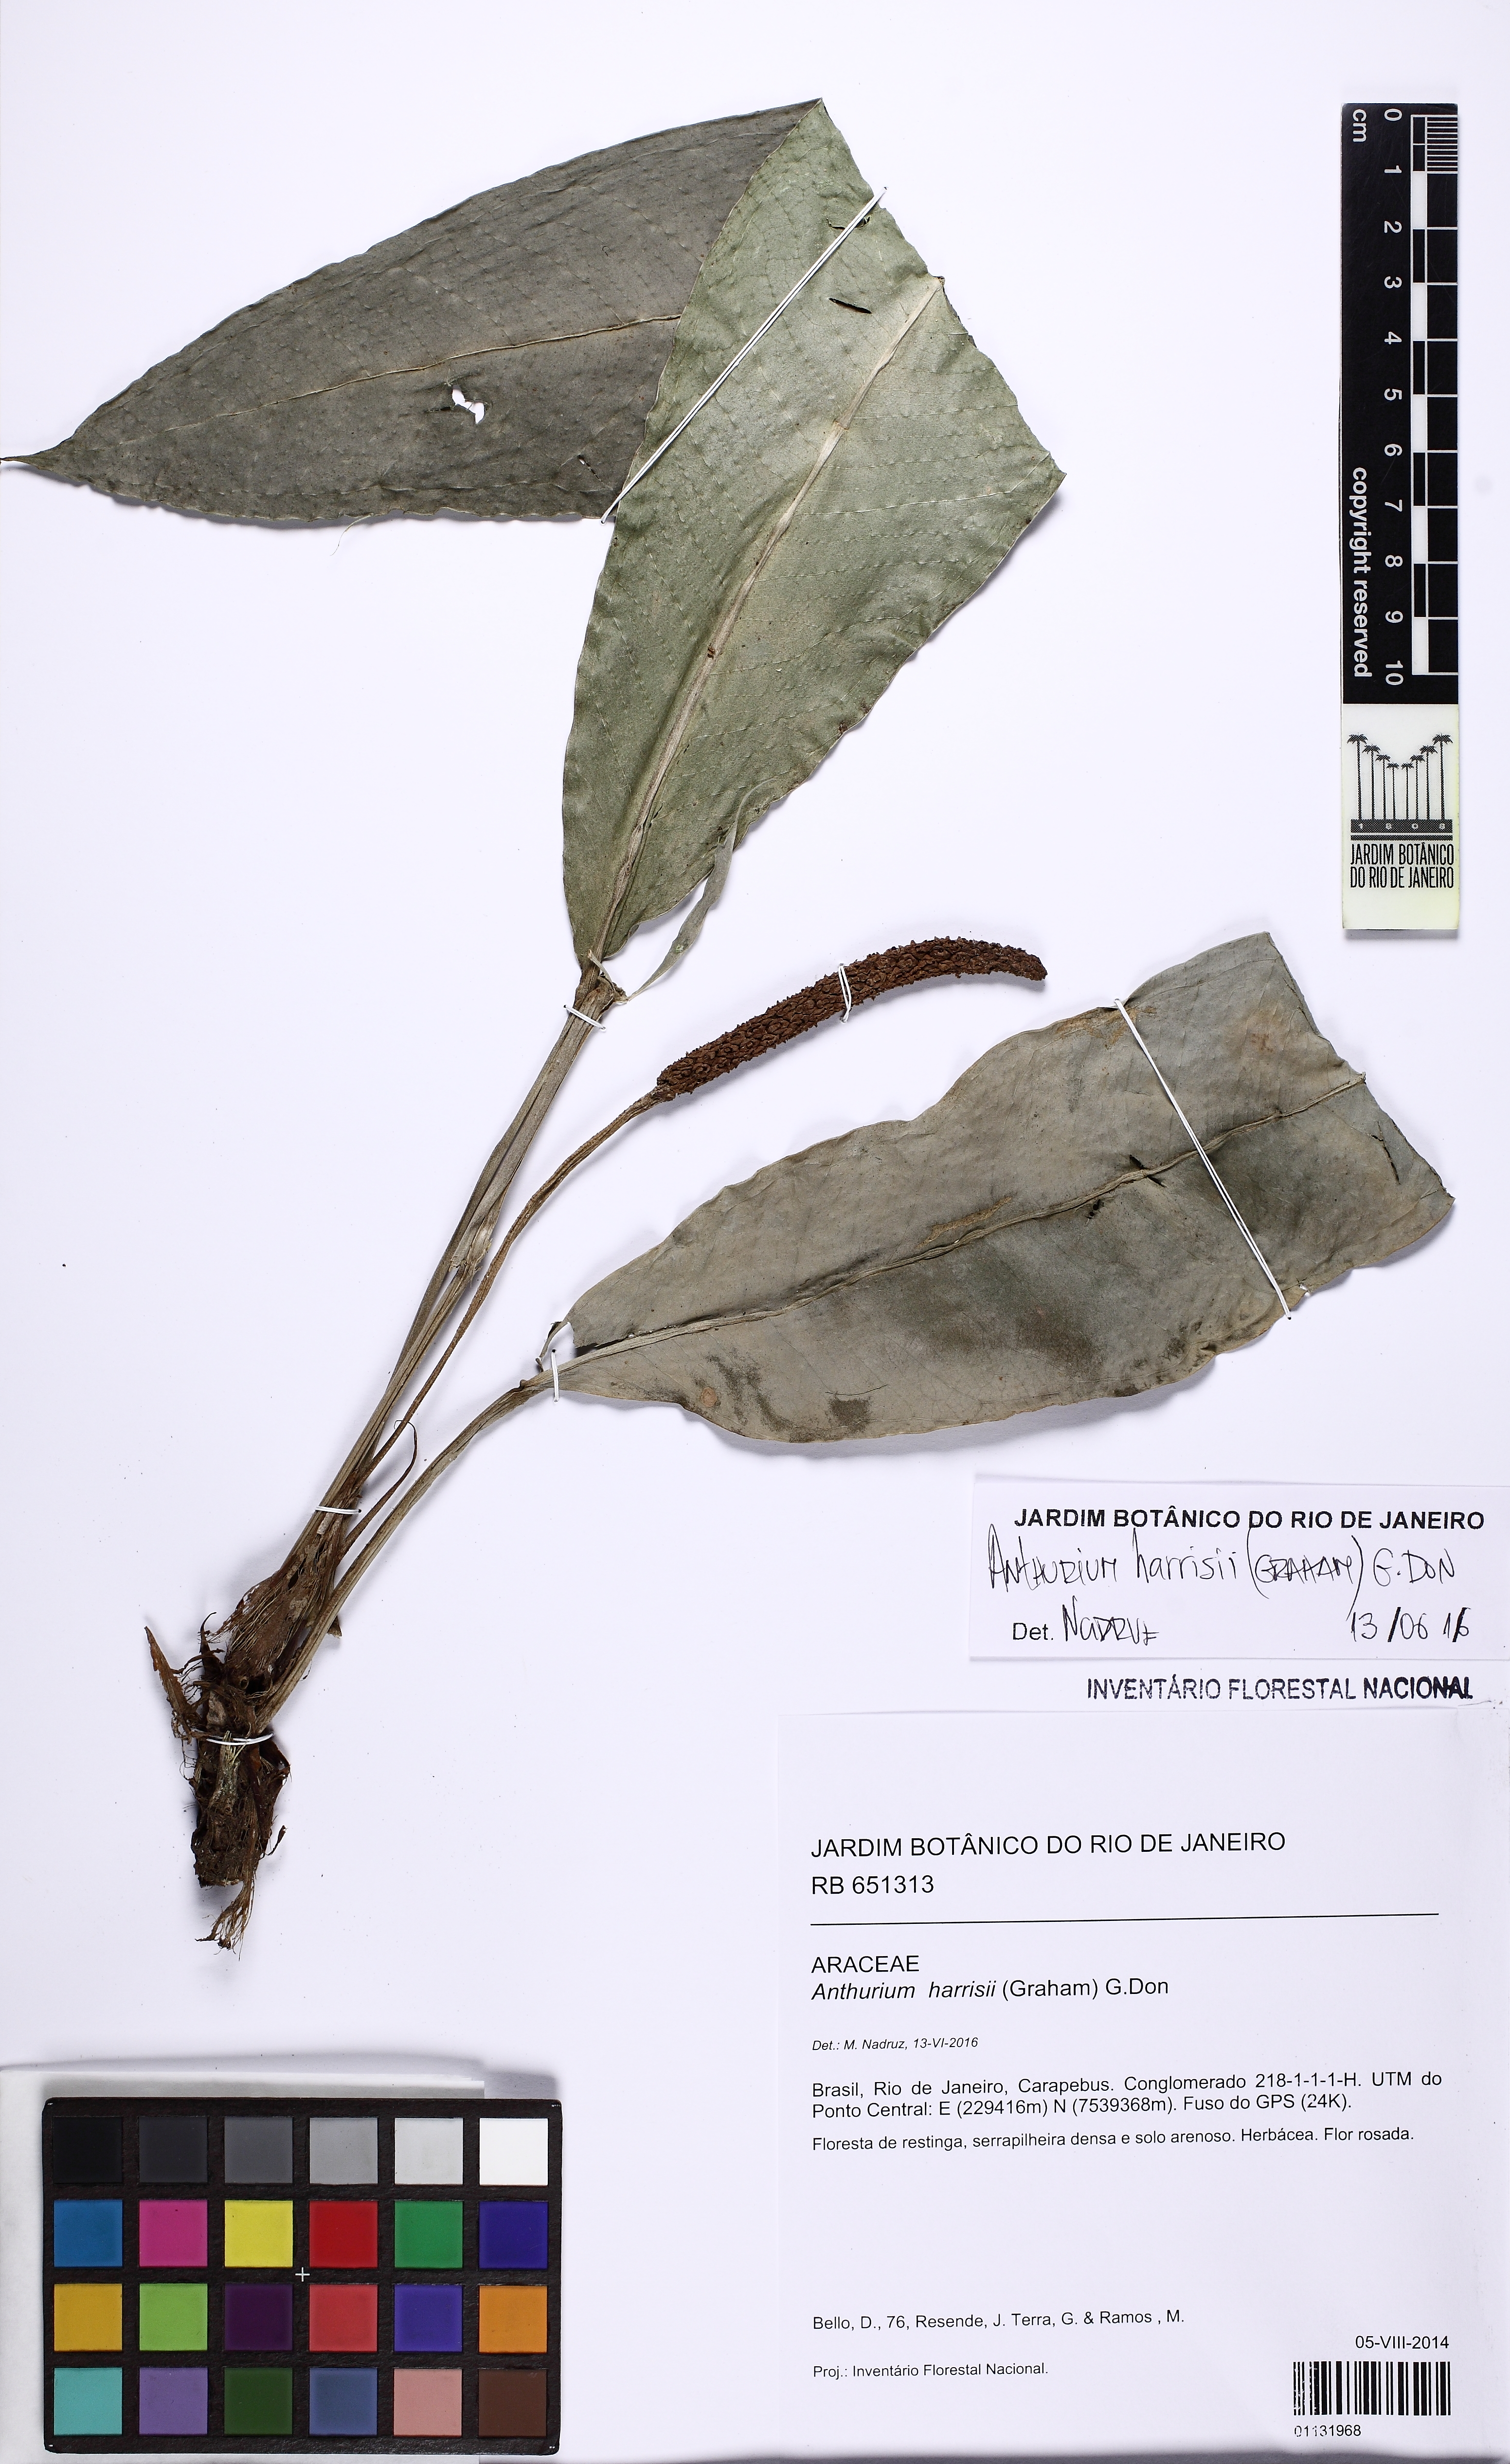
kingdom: Plantae
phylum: Tracheophyta
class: Liliopsida
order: Alismatales
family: Araceae
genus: Anthurium
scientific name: Anthurium harrisii
